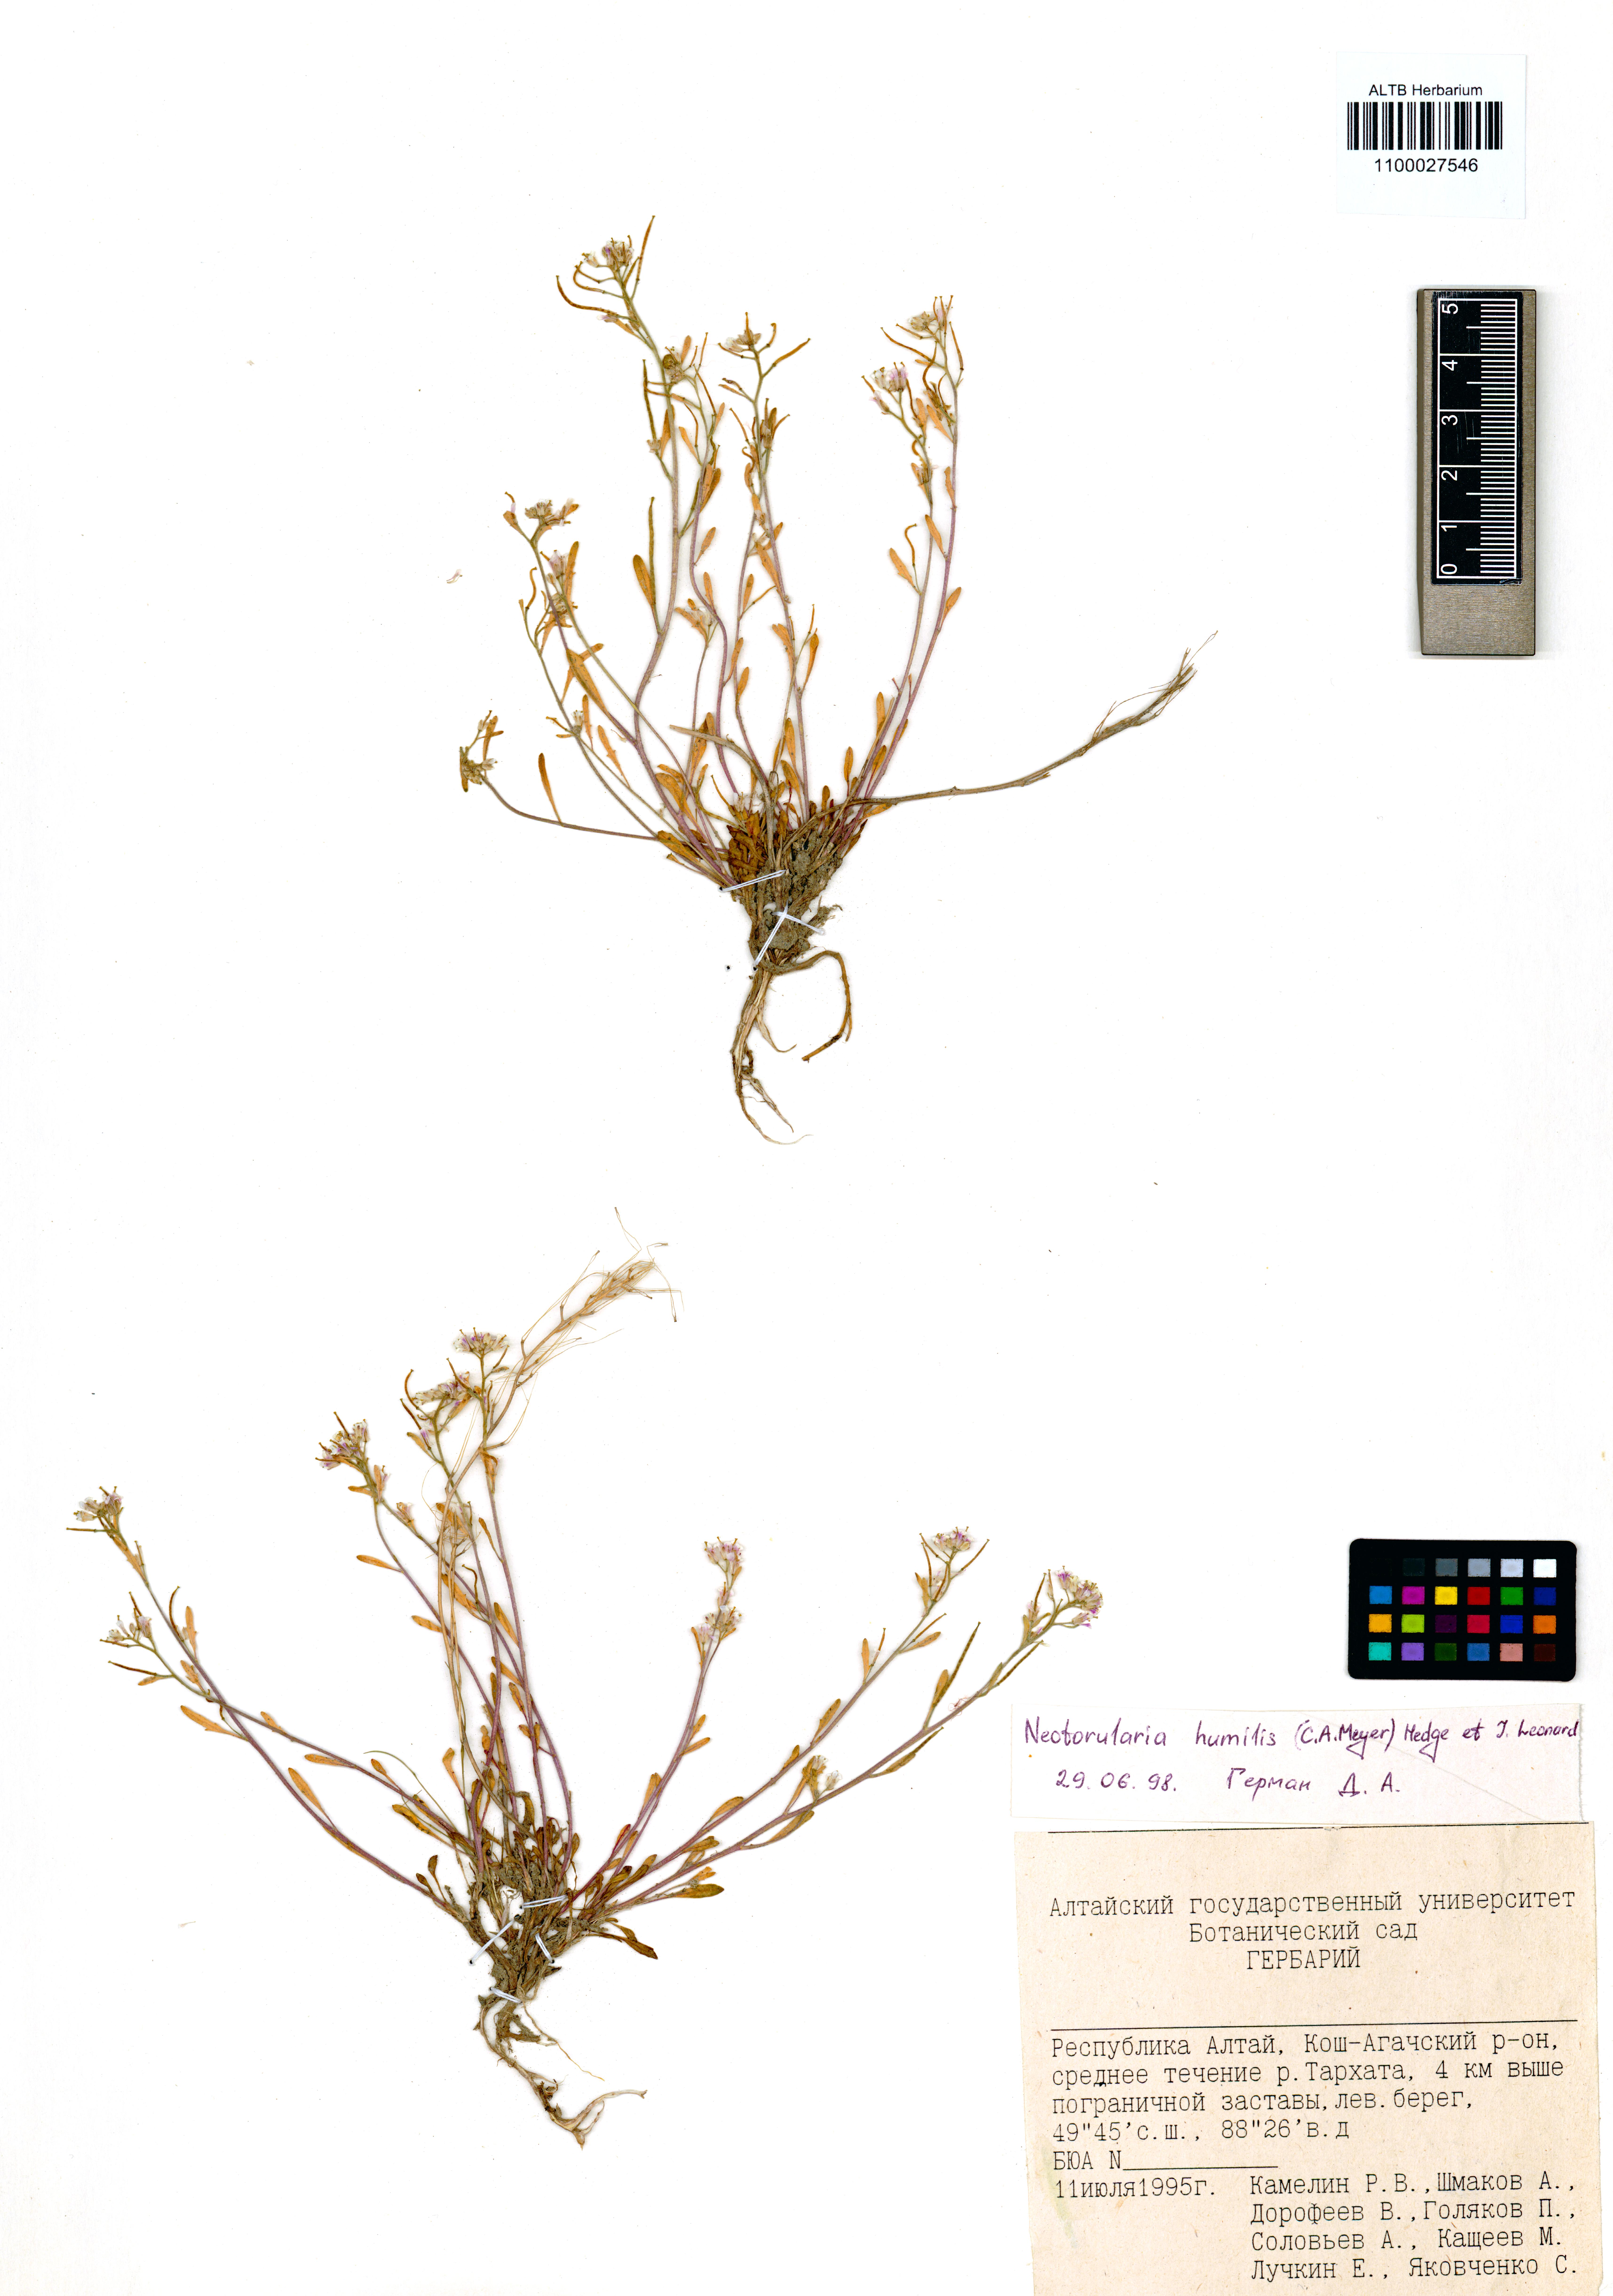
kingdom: Plantae
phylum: Tracheophyta
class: Magnoliopsida
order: Brassicales
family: Brassicaceae
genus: Braya
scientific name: Braya humilis
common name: Alpine northern rockcress
